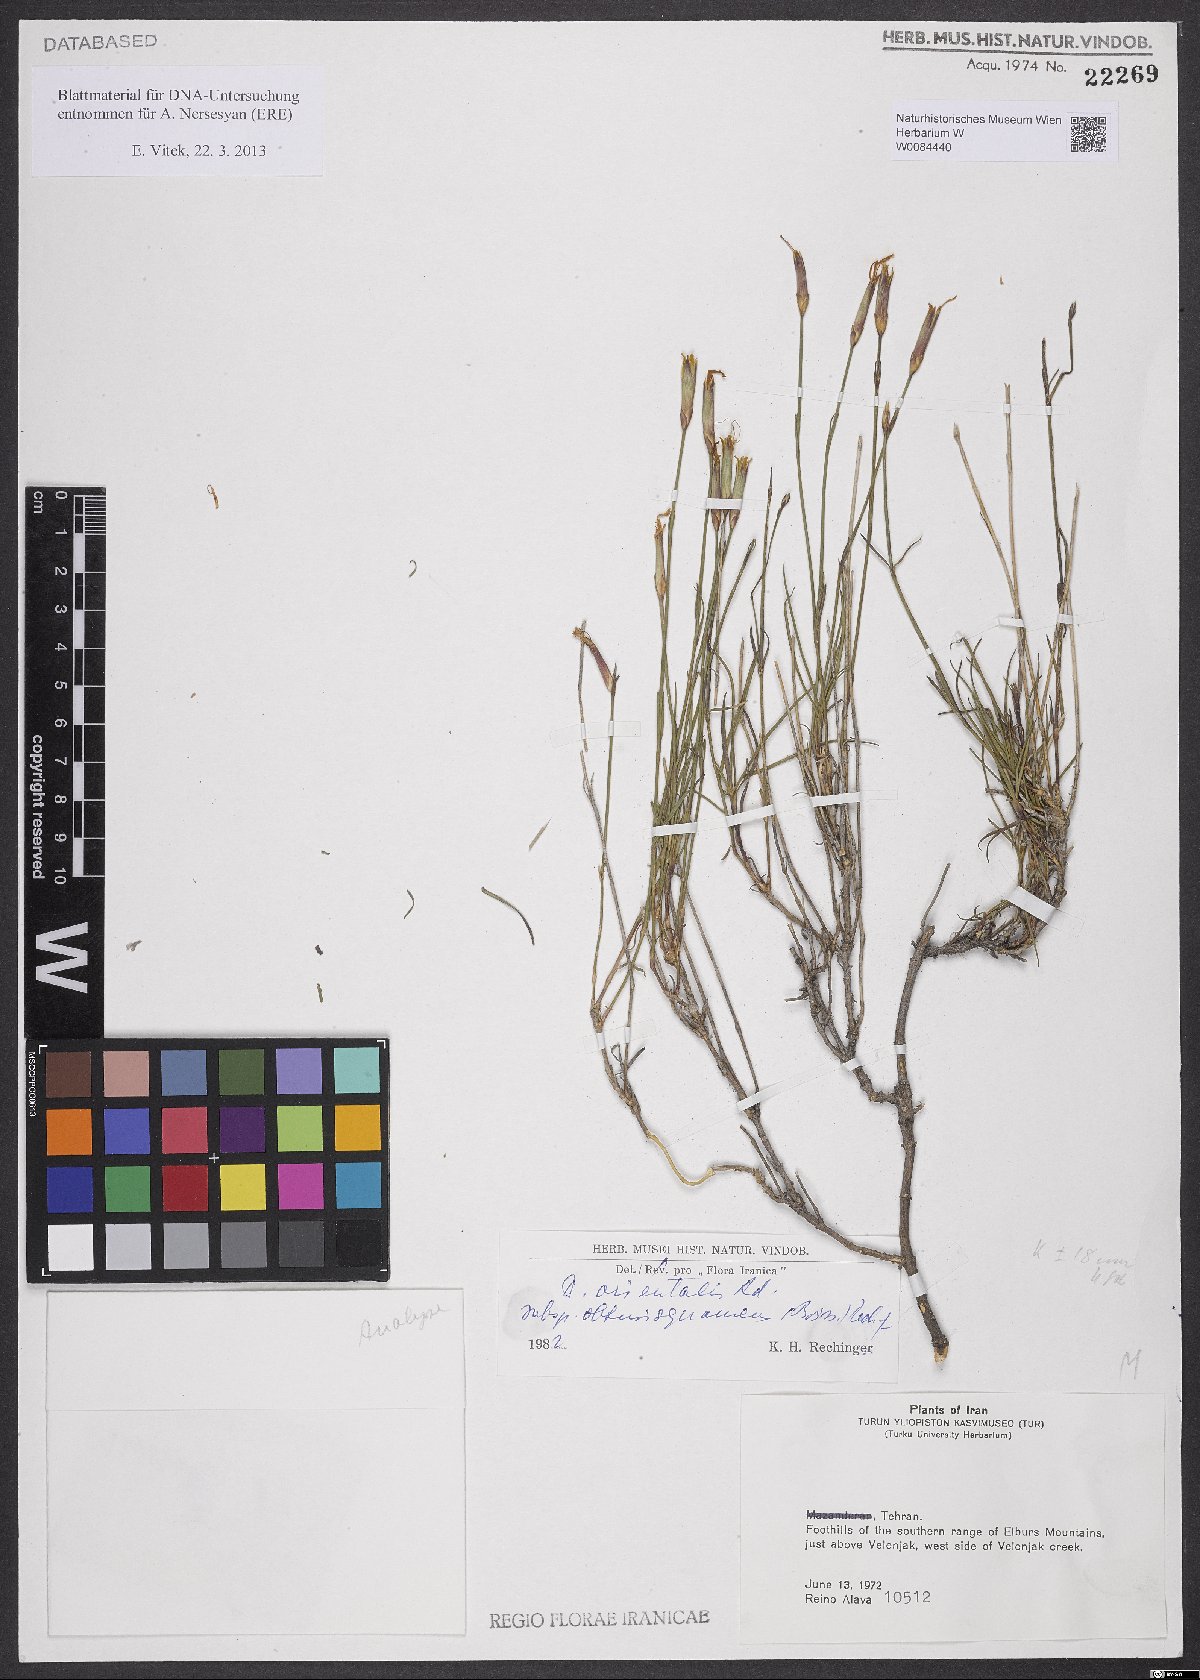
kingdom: Plantae
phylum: Tracheophyta
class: Magnoliopsida
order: Caryophyllales
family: Caryophyllaceae
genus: Dianthus
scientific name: Dianthus orientalis
